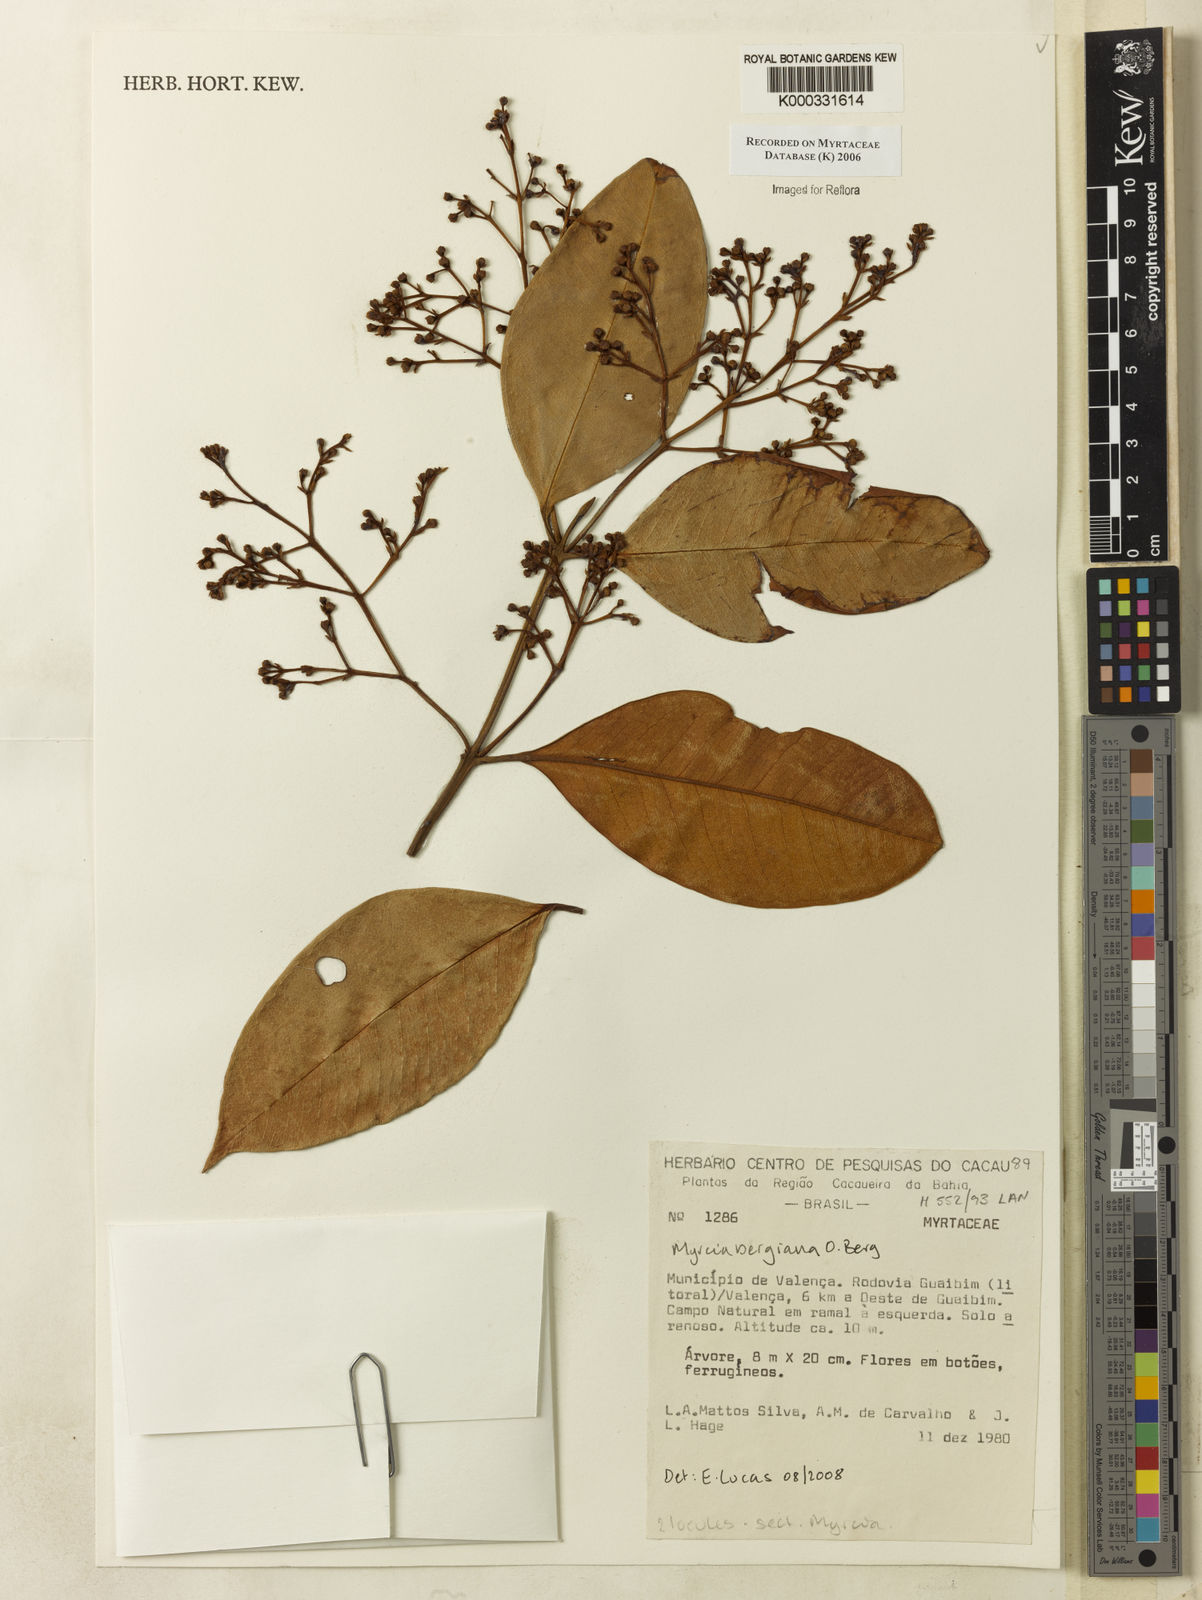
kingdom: Plantae
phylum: Tracheophyta
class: Magnoliopsida
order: Myrtales
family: Myrtaceae
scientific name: Myrtaceae
